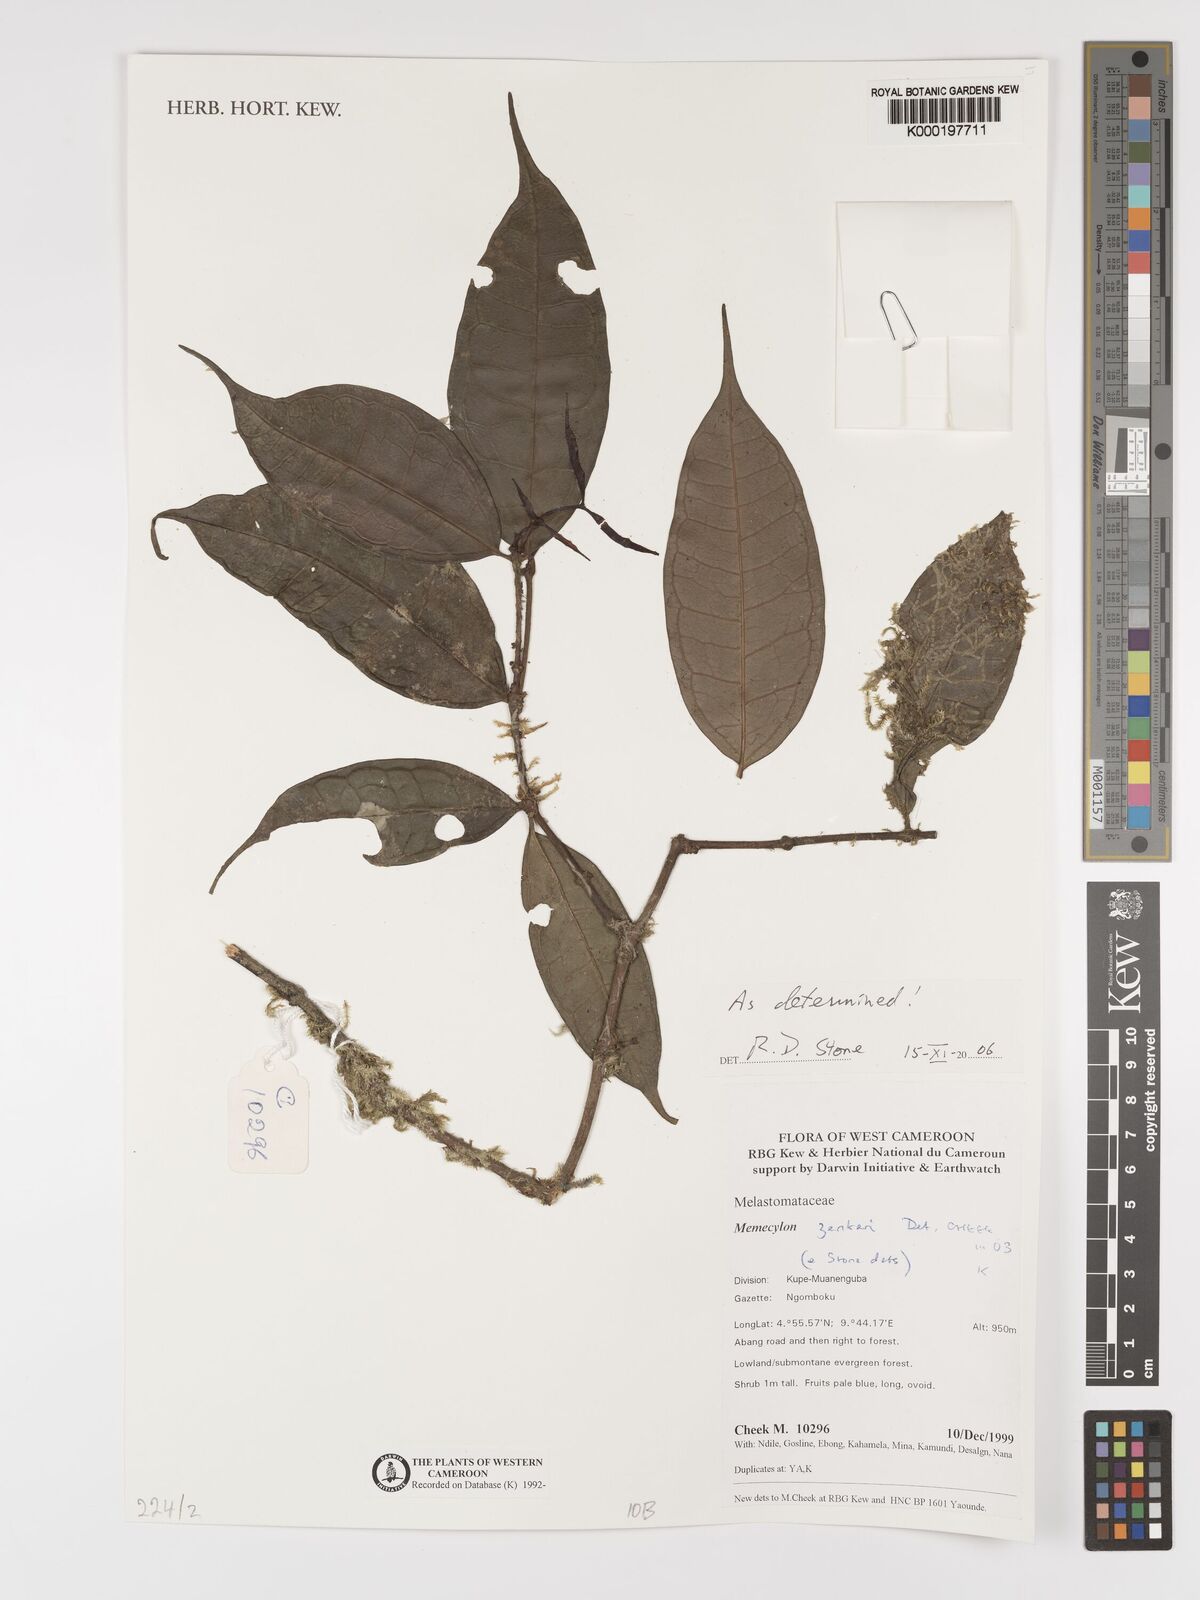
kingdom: Plantae
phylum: Tracheophyta
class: Magnoliopsida
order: Myrtales
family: Melastomataceae
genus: Memecylon
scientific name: Memecylon zenkeri
